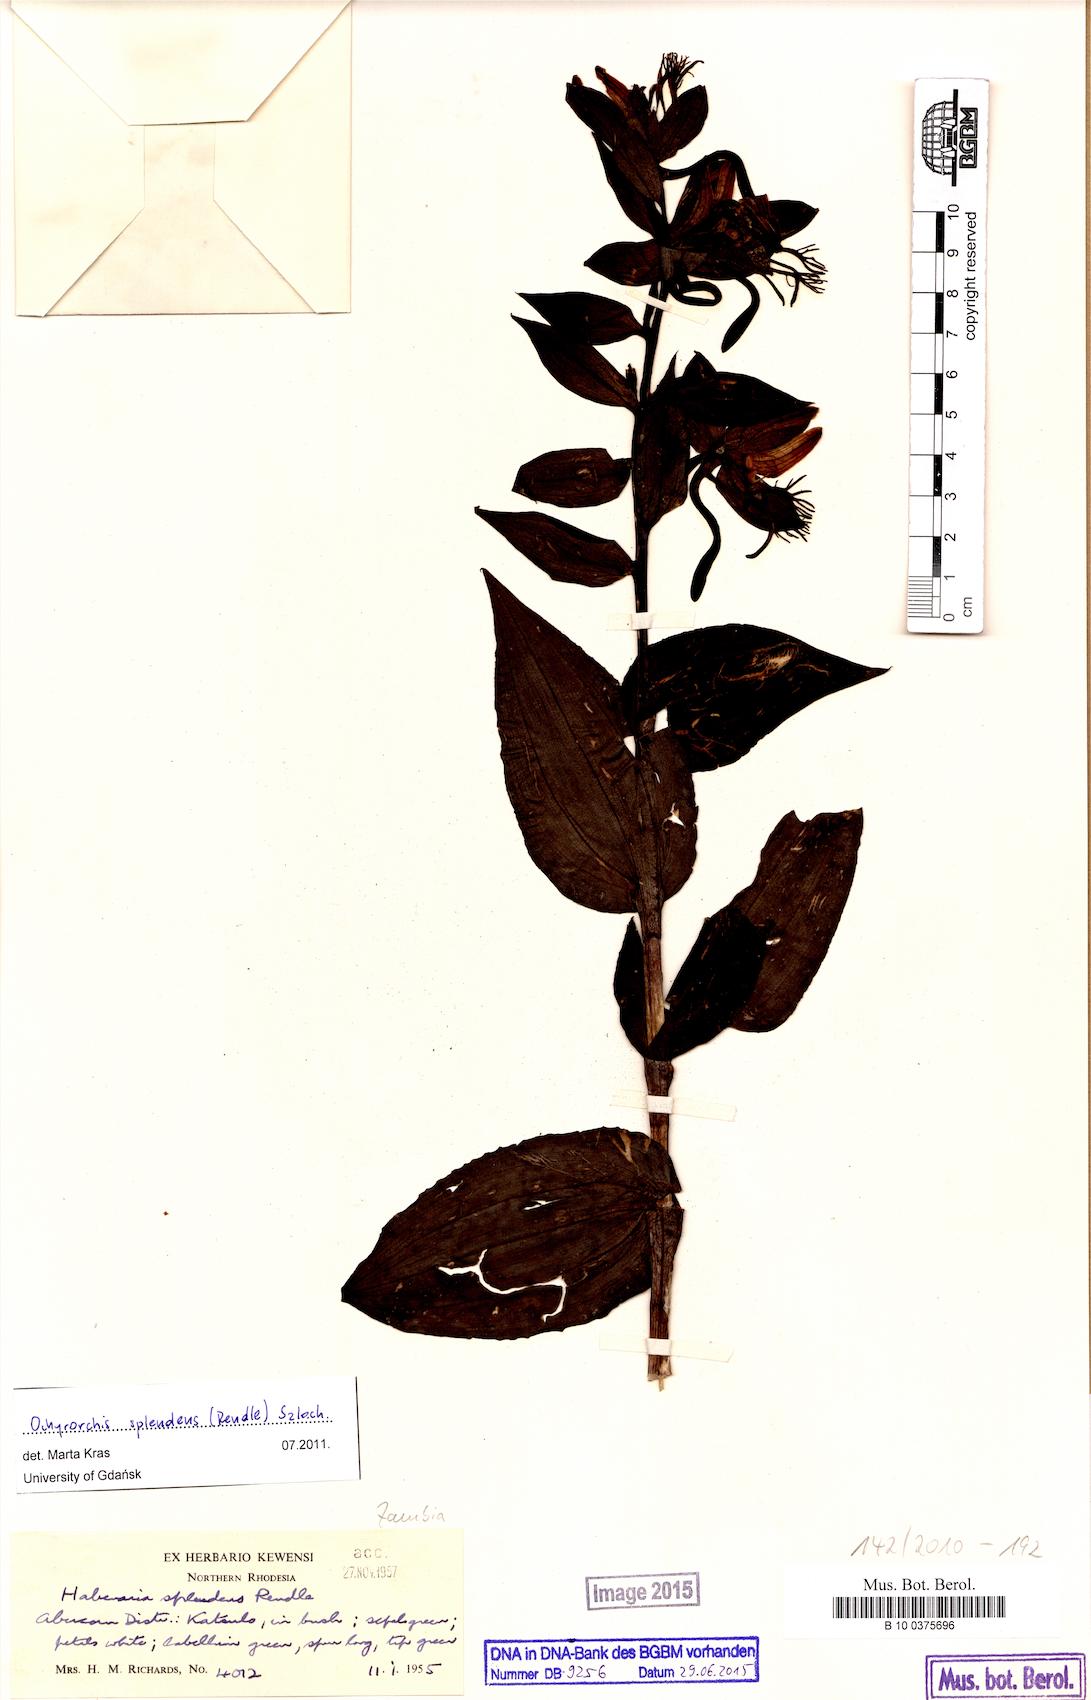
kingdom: Plantae
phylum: Tracheophyta
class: Liliopsida
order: Asparagales
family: Orchidaceae
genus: Habenaria
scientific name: Habenaria splendens
